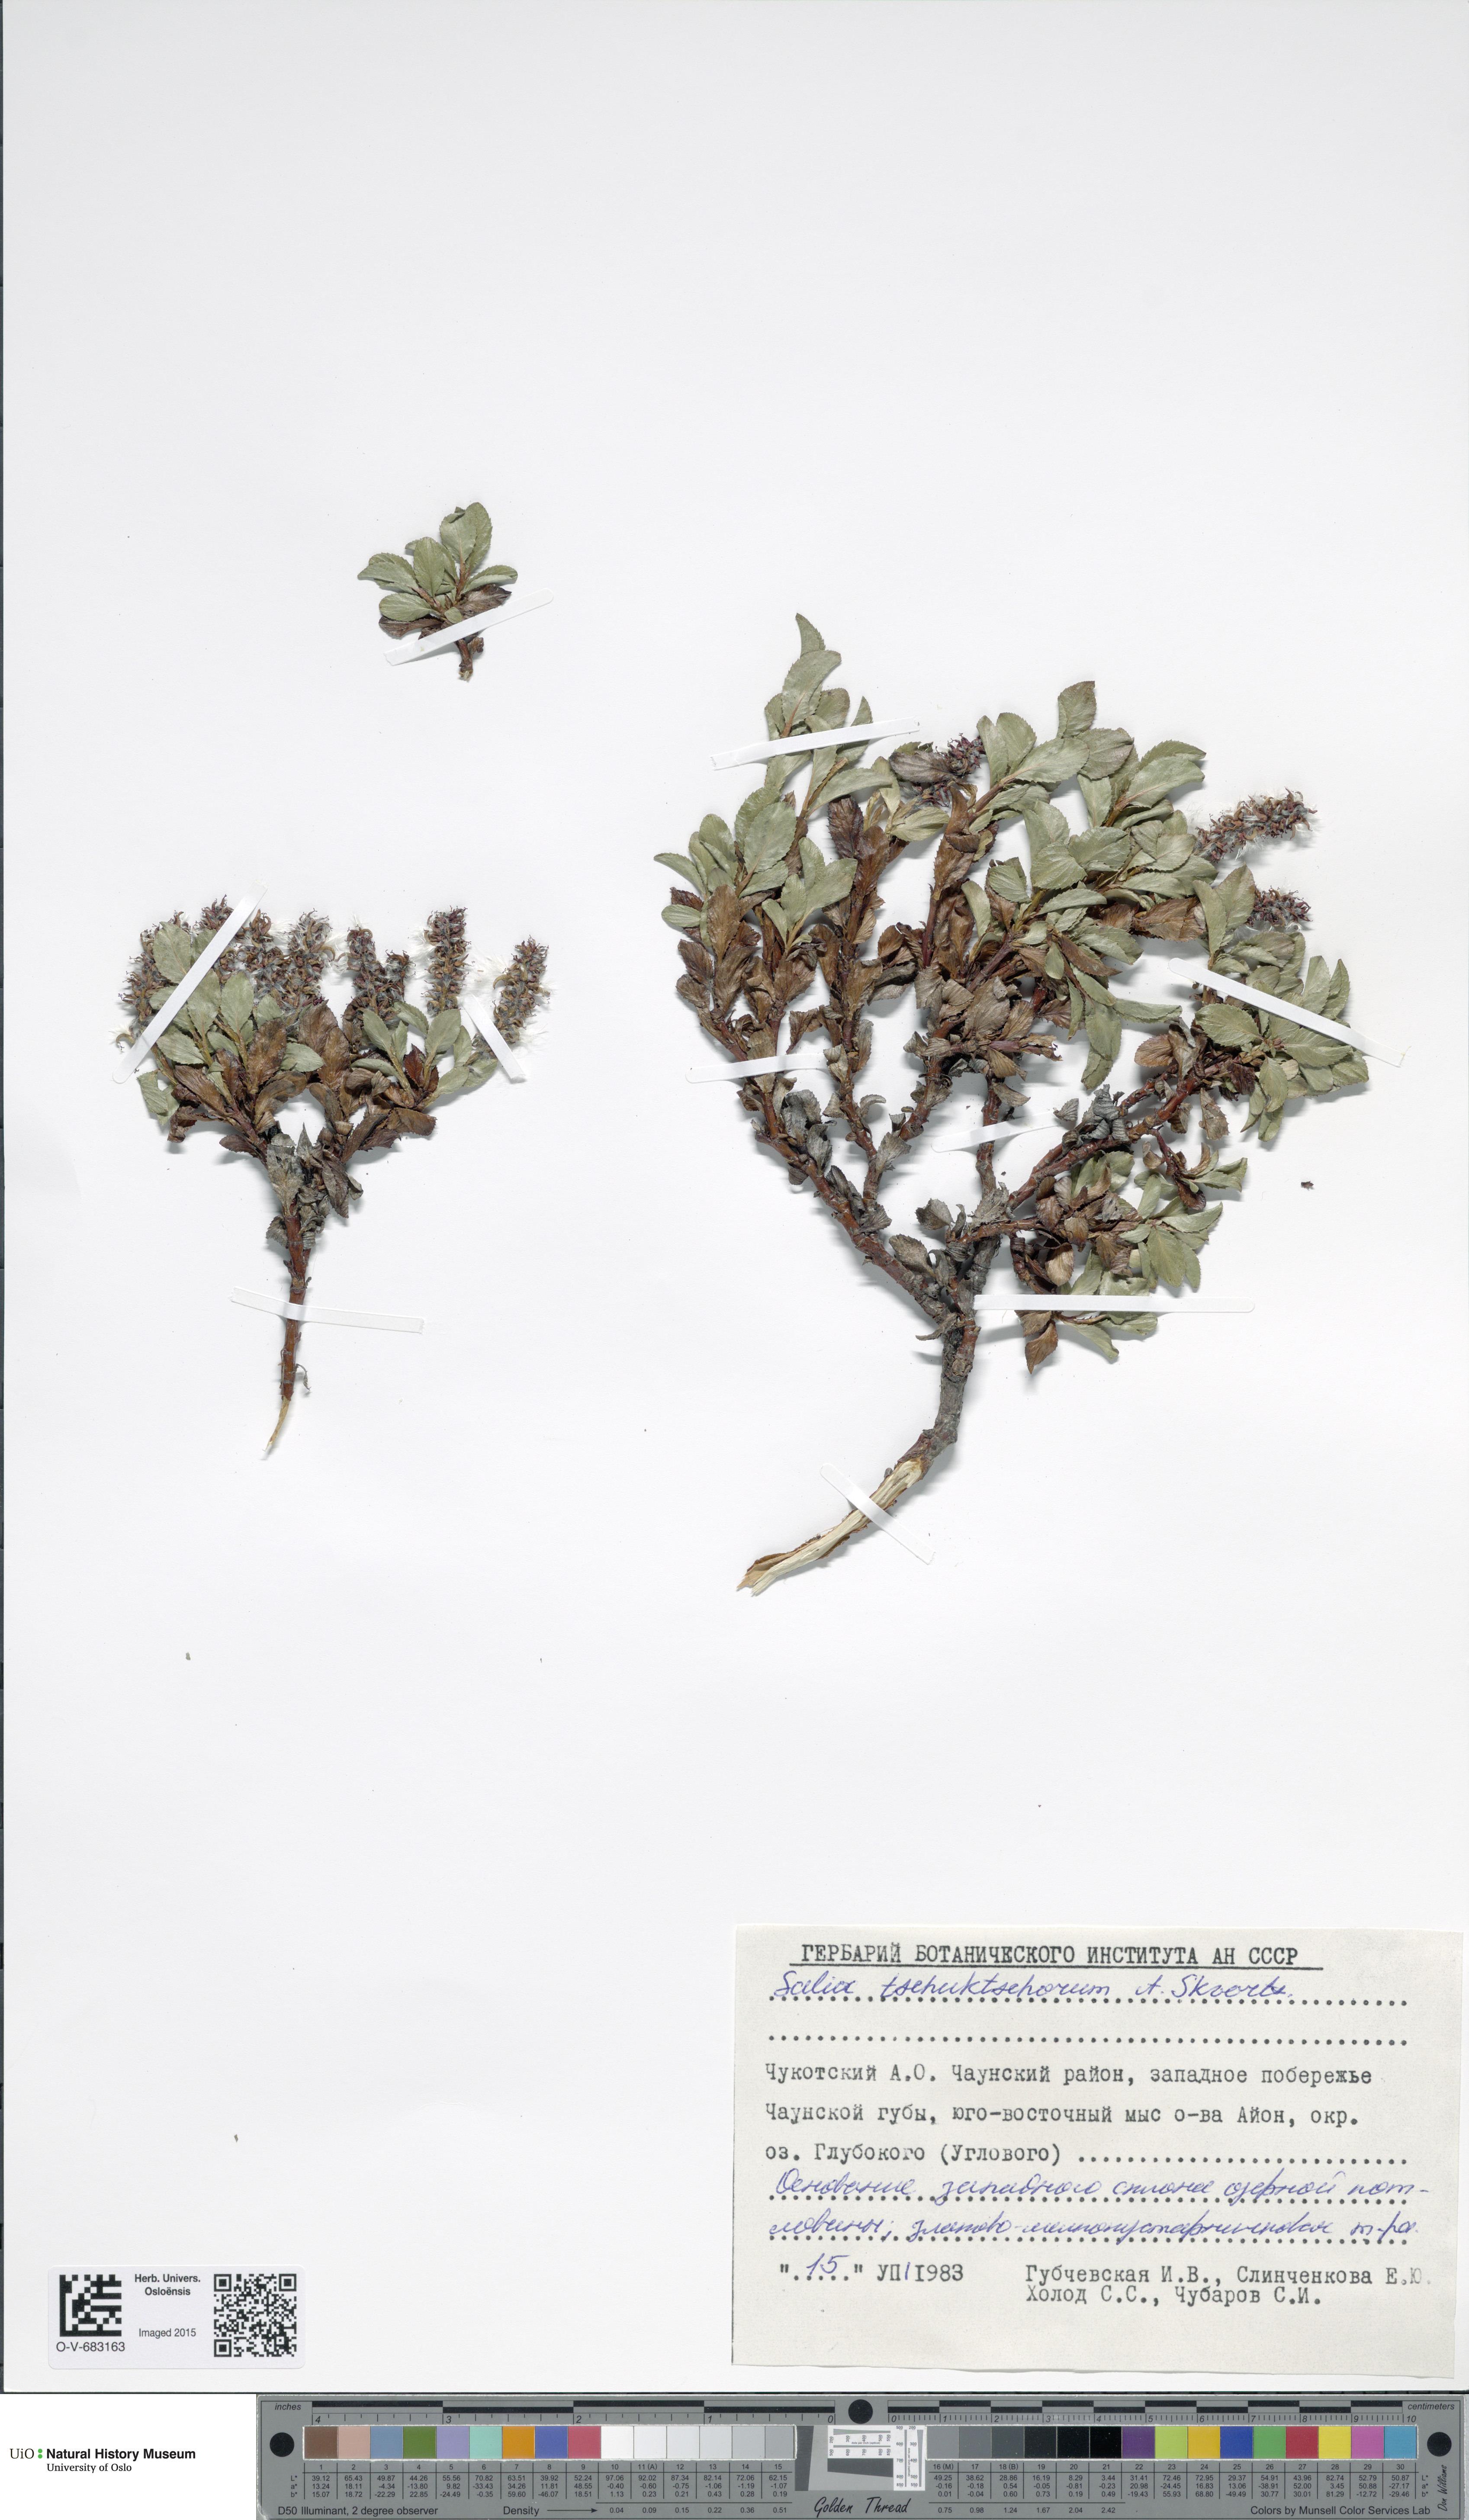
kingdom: Plantae
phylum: Tracheophyta
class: Magnoliopsida
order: Malpighiales
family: Salicaceae
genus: Salix
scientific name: Salix tschuktschorum
